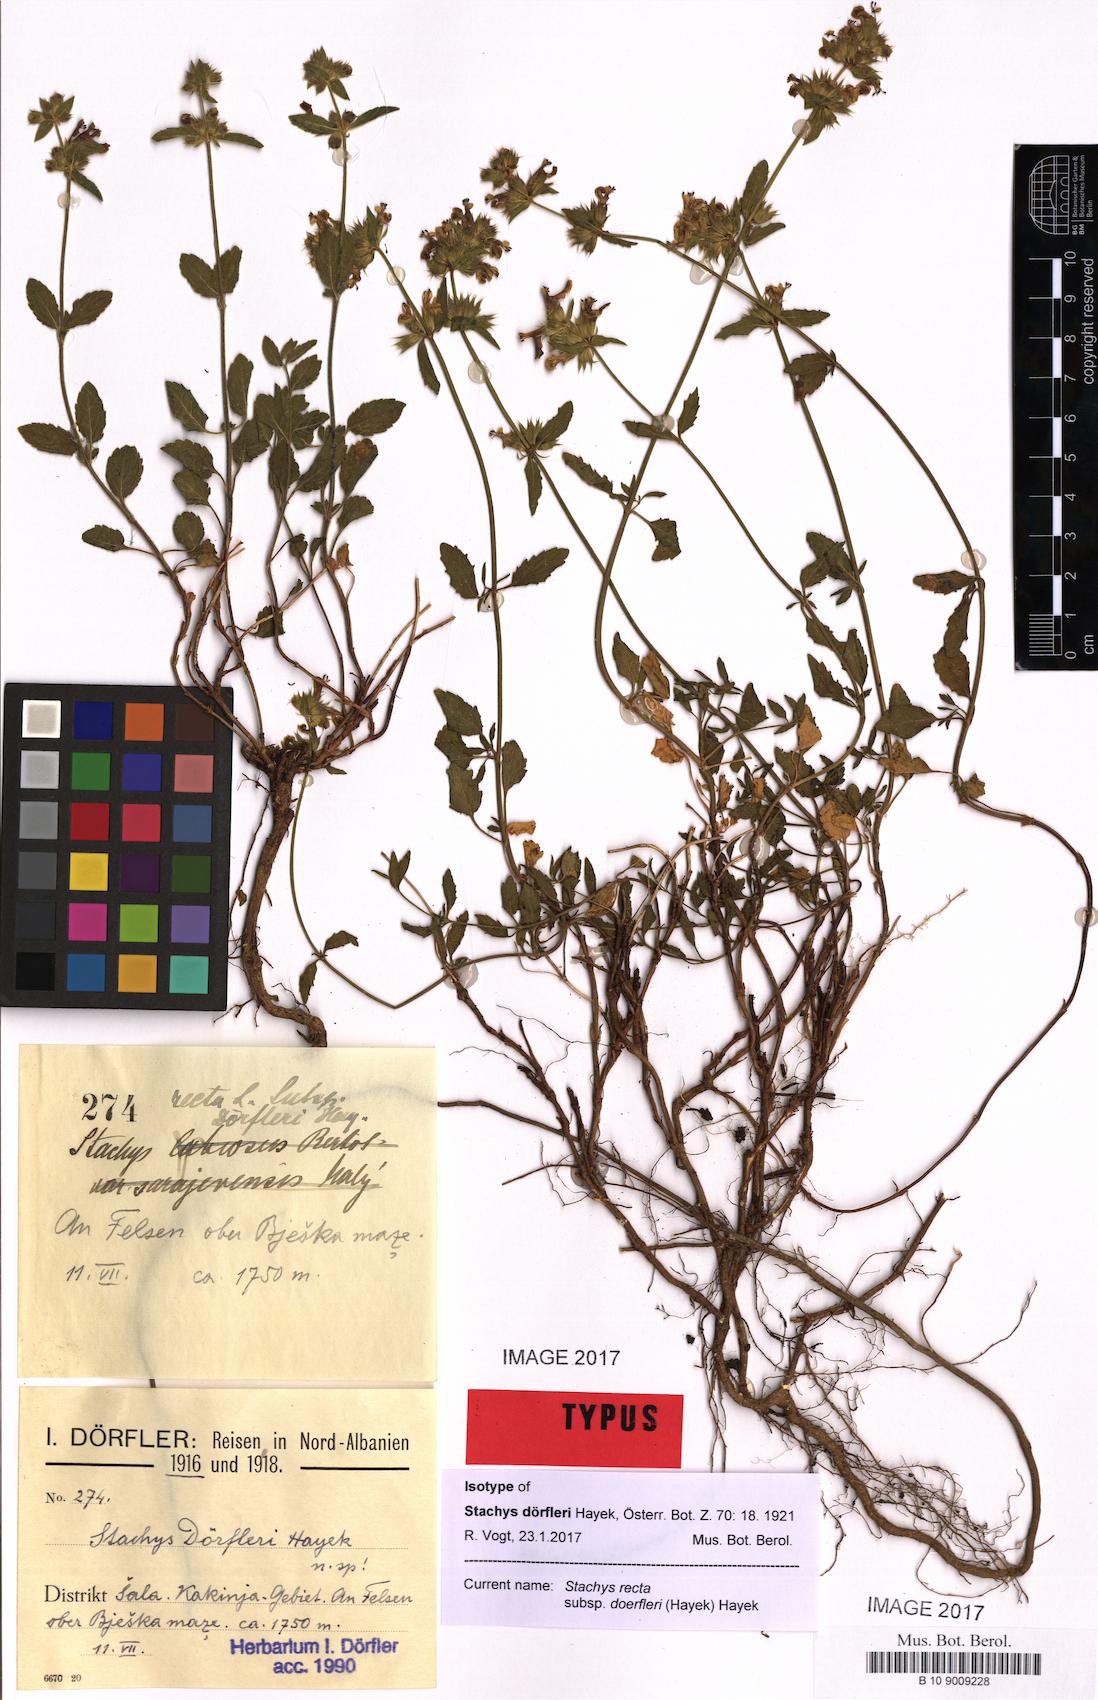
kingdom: Plantae
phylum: Tracheophyta
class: Magnoliopsida
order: Lamiales
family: Lamiaceae
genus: Stachys
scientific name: Stachys recta
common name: Perennial yellow-woundwort
